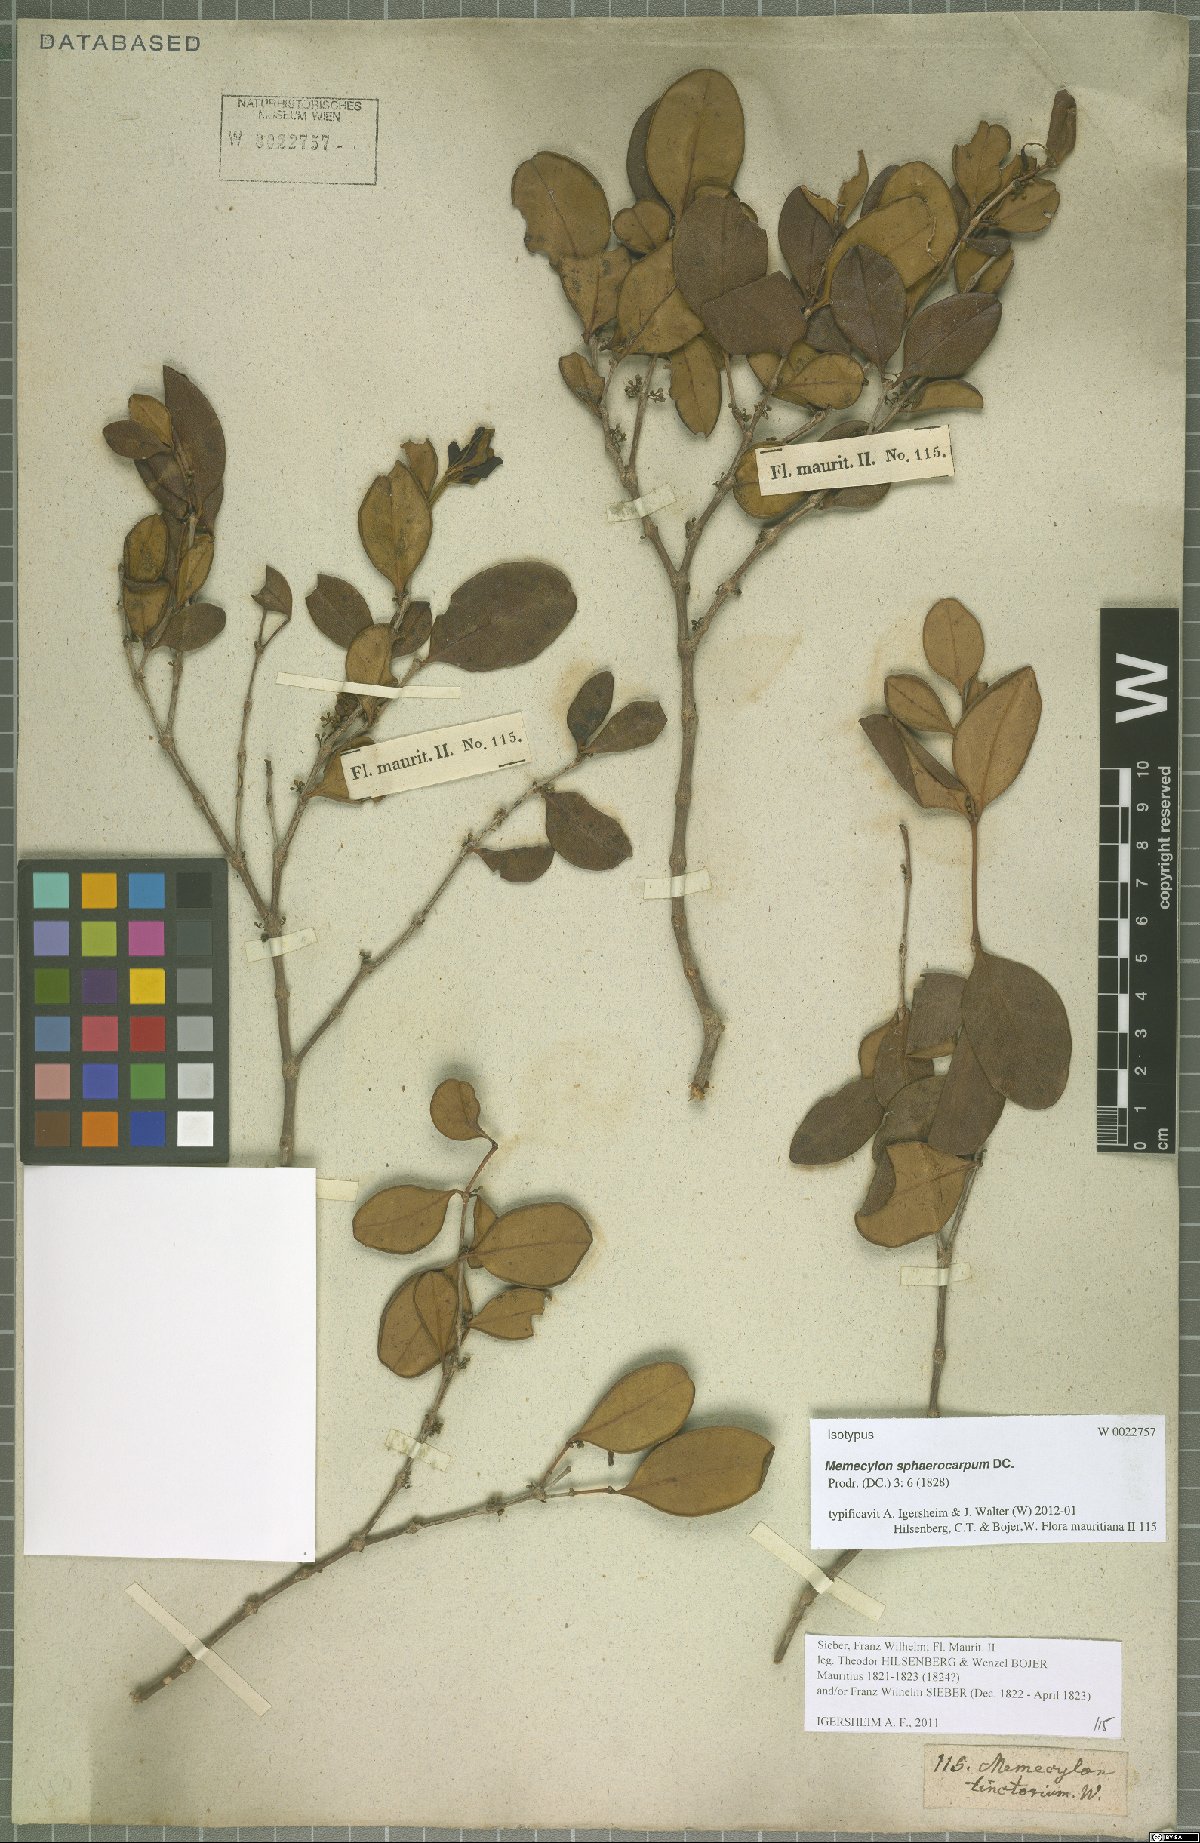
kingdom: Plantae
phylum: Tracheophyta
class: Magnoliopsida
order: Myrtales
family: Melastomataceae
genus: Memecylon
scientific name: Memecylon ovatifolium
